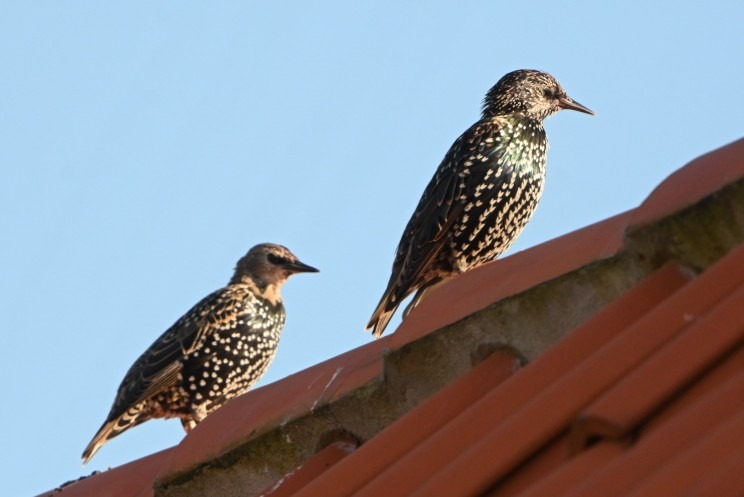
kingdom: Animalia
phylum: Chordata
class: Aves
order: Passeriformes
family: Sturnidae
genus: Sturnus
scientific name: Sturnus vulgaris
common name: Stær
